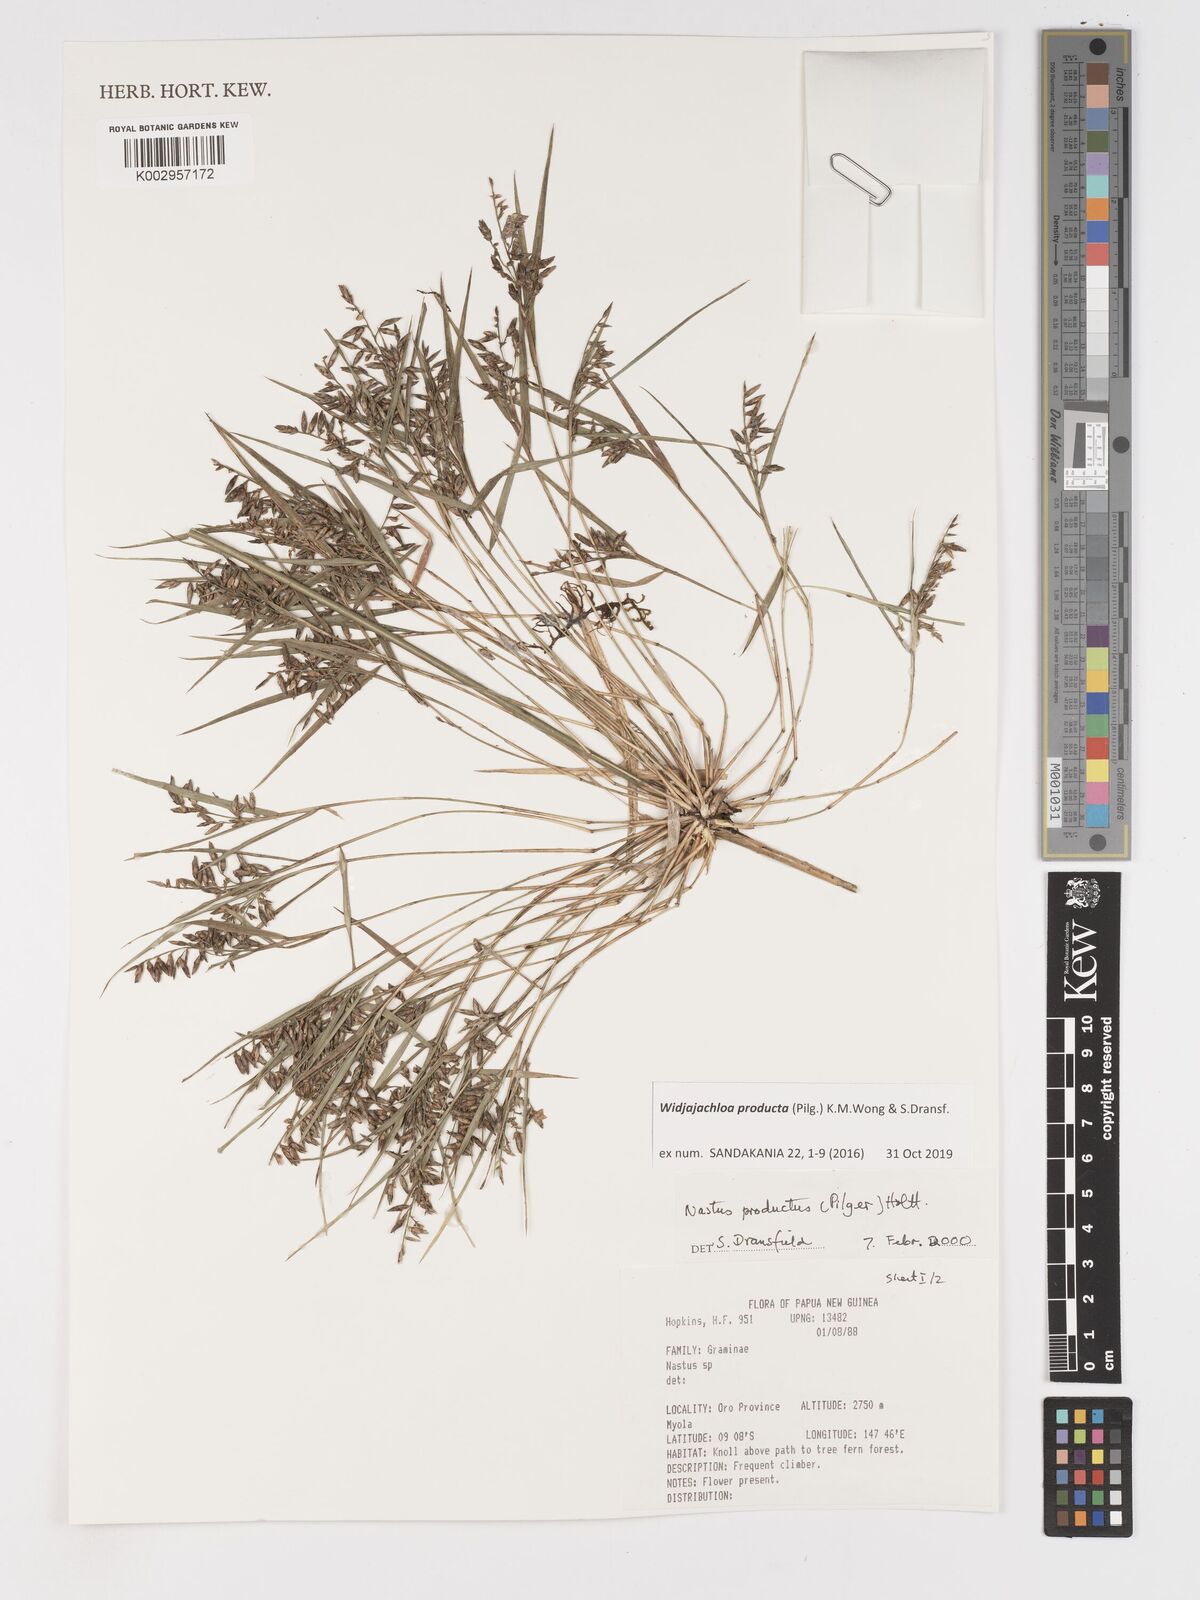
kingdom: Plantae
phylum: Tracheophyta
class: Liliopsida
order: Poales
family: Poaceae
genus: Widjajachloa
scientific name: Widjajachloa producta
